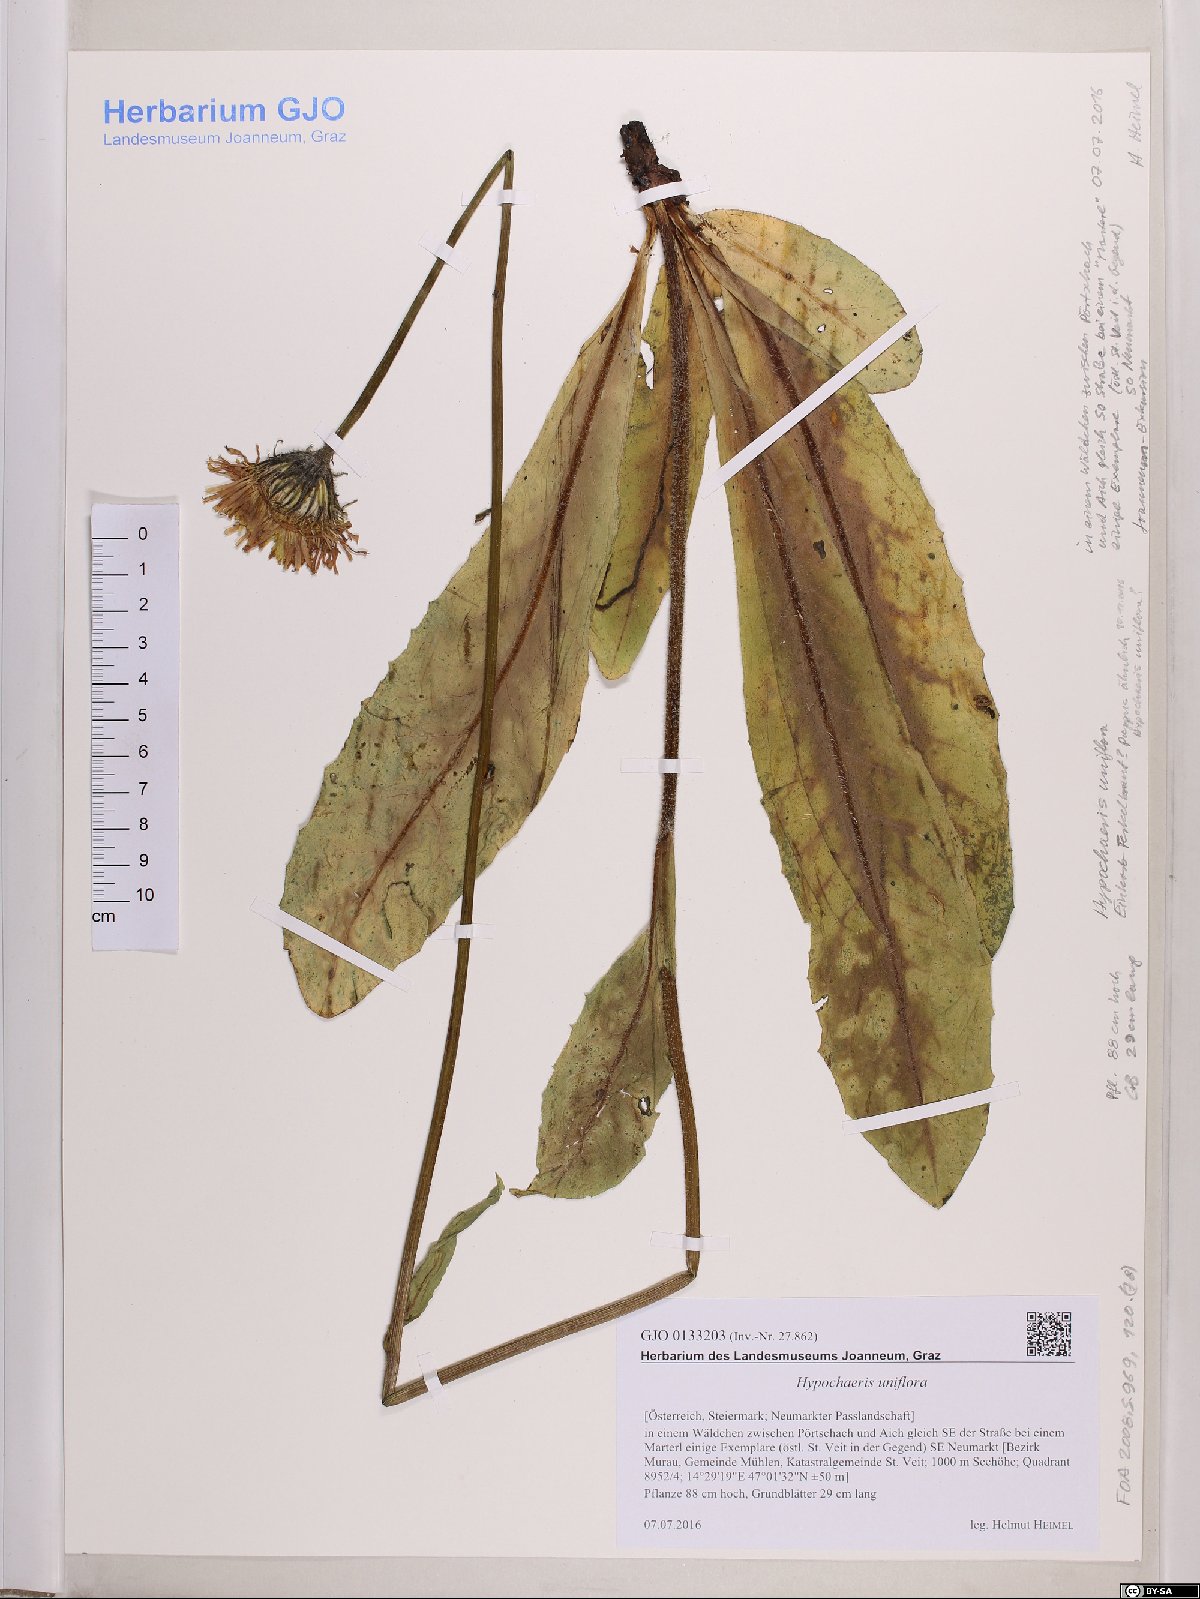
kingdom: Plantae
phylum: Tracheophyta
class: Magnoliopsida
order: Asterales
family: Asteraceae
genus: Trommsdorffia
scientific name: Trommsdorffia uniflora
